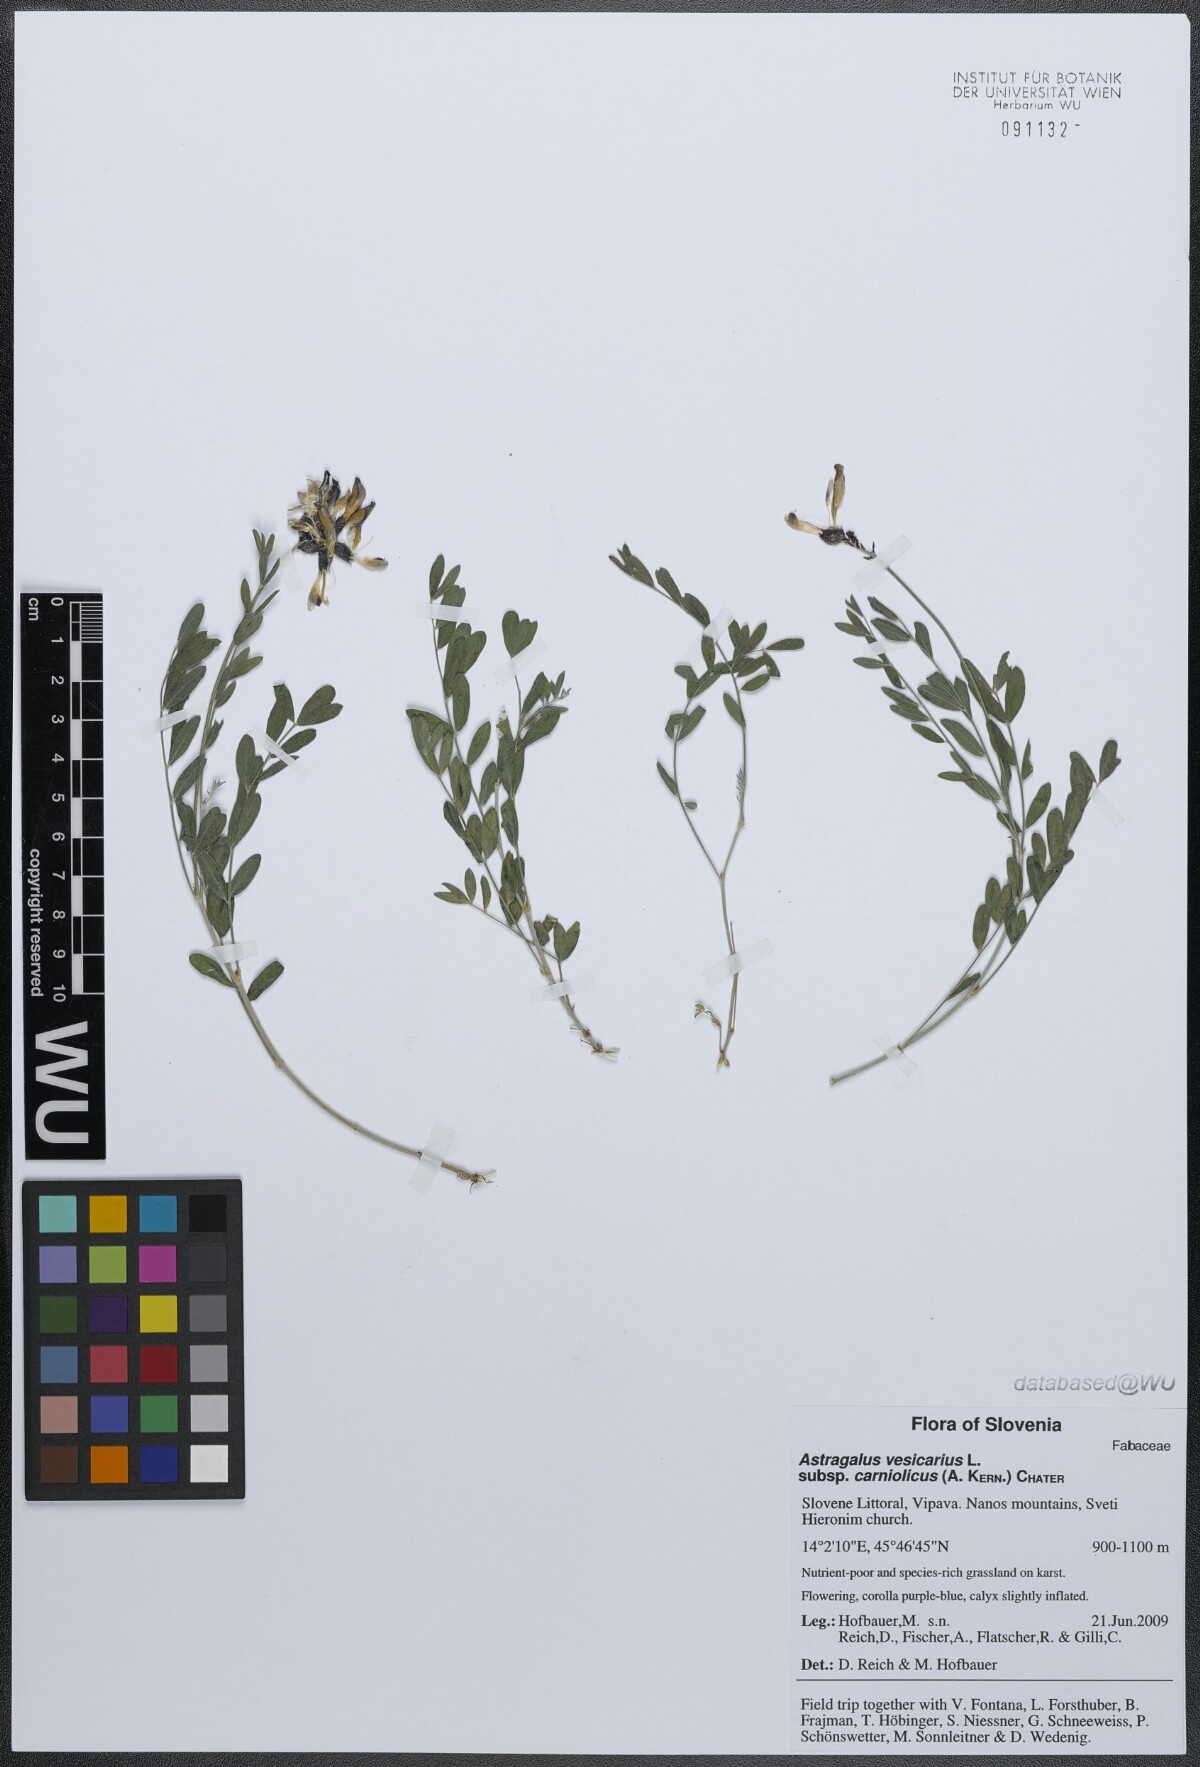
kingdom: Plantae
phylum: Tracheophyta
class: Magnoliopsida
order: Fabales
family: Fabaceae
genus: Astragalus
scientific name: Astragalus vesicarius
